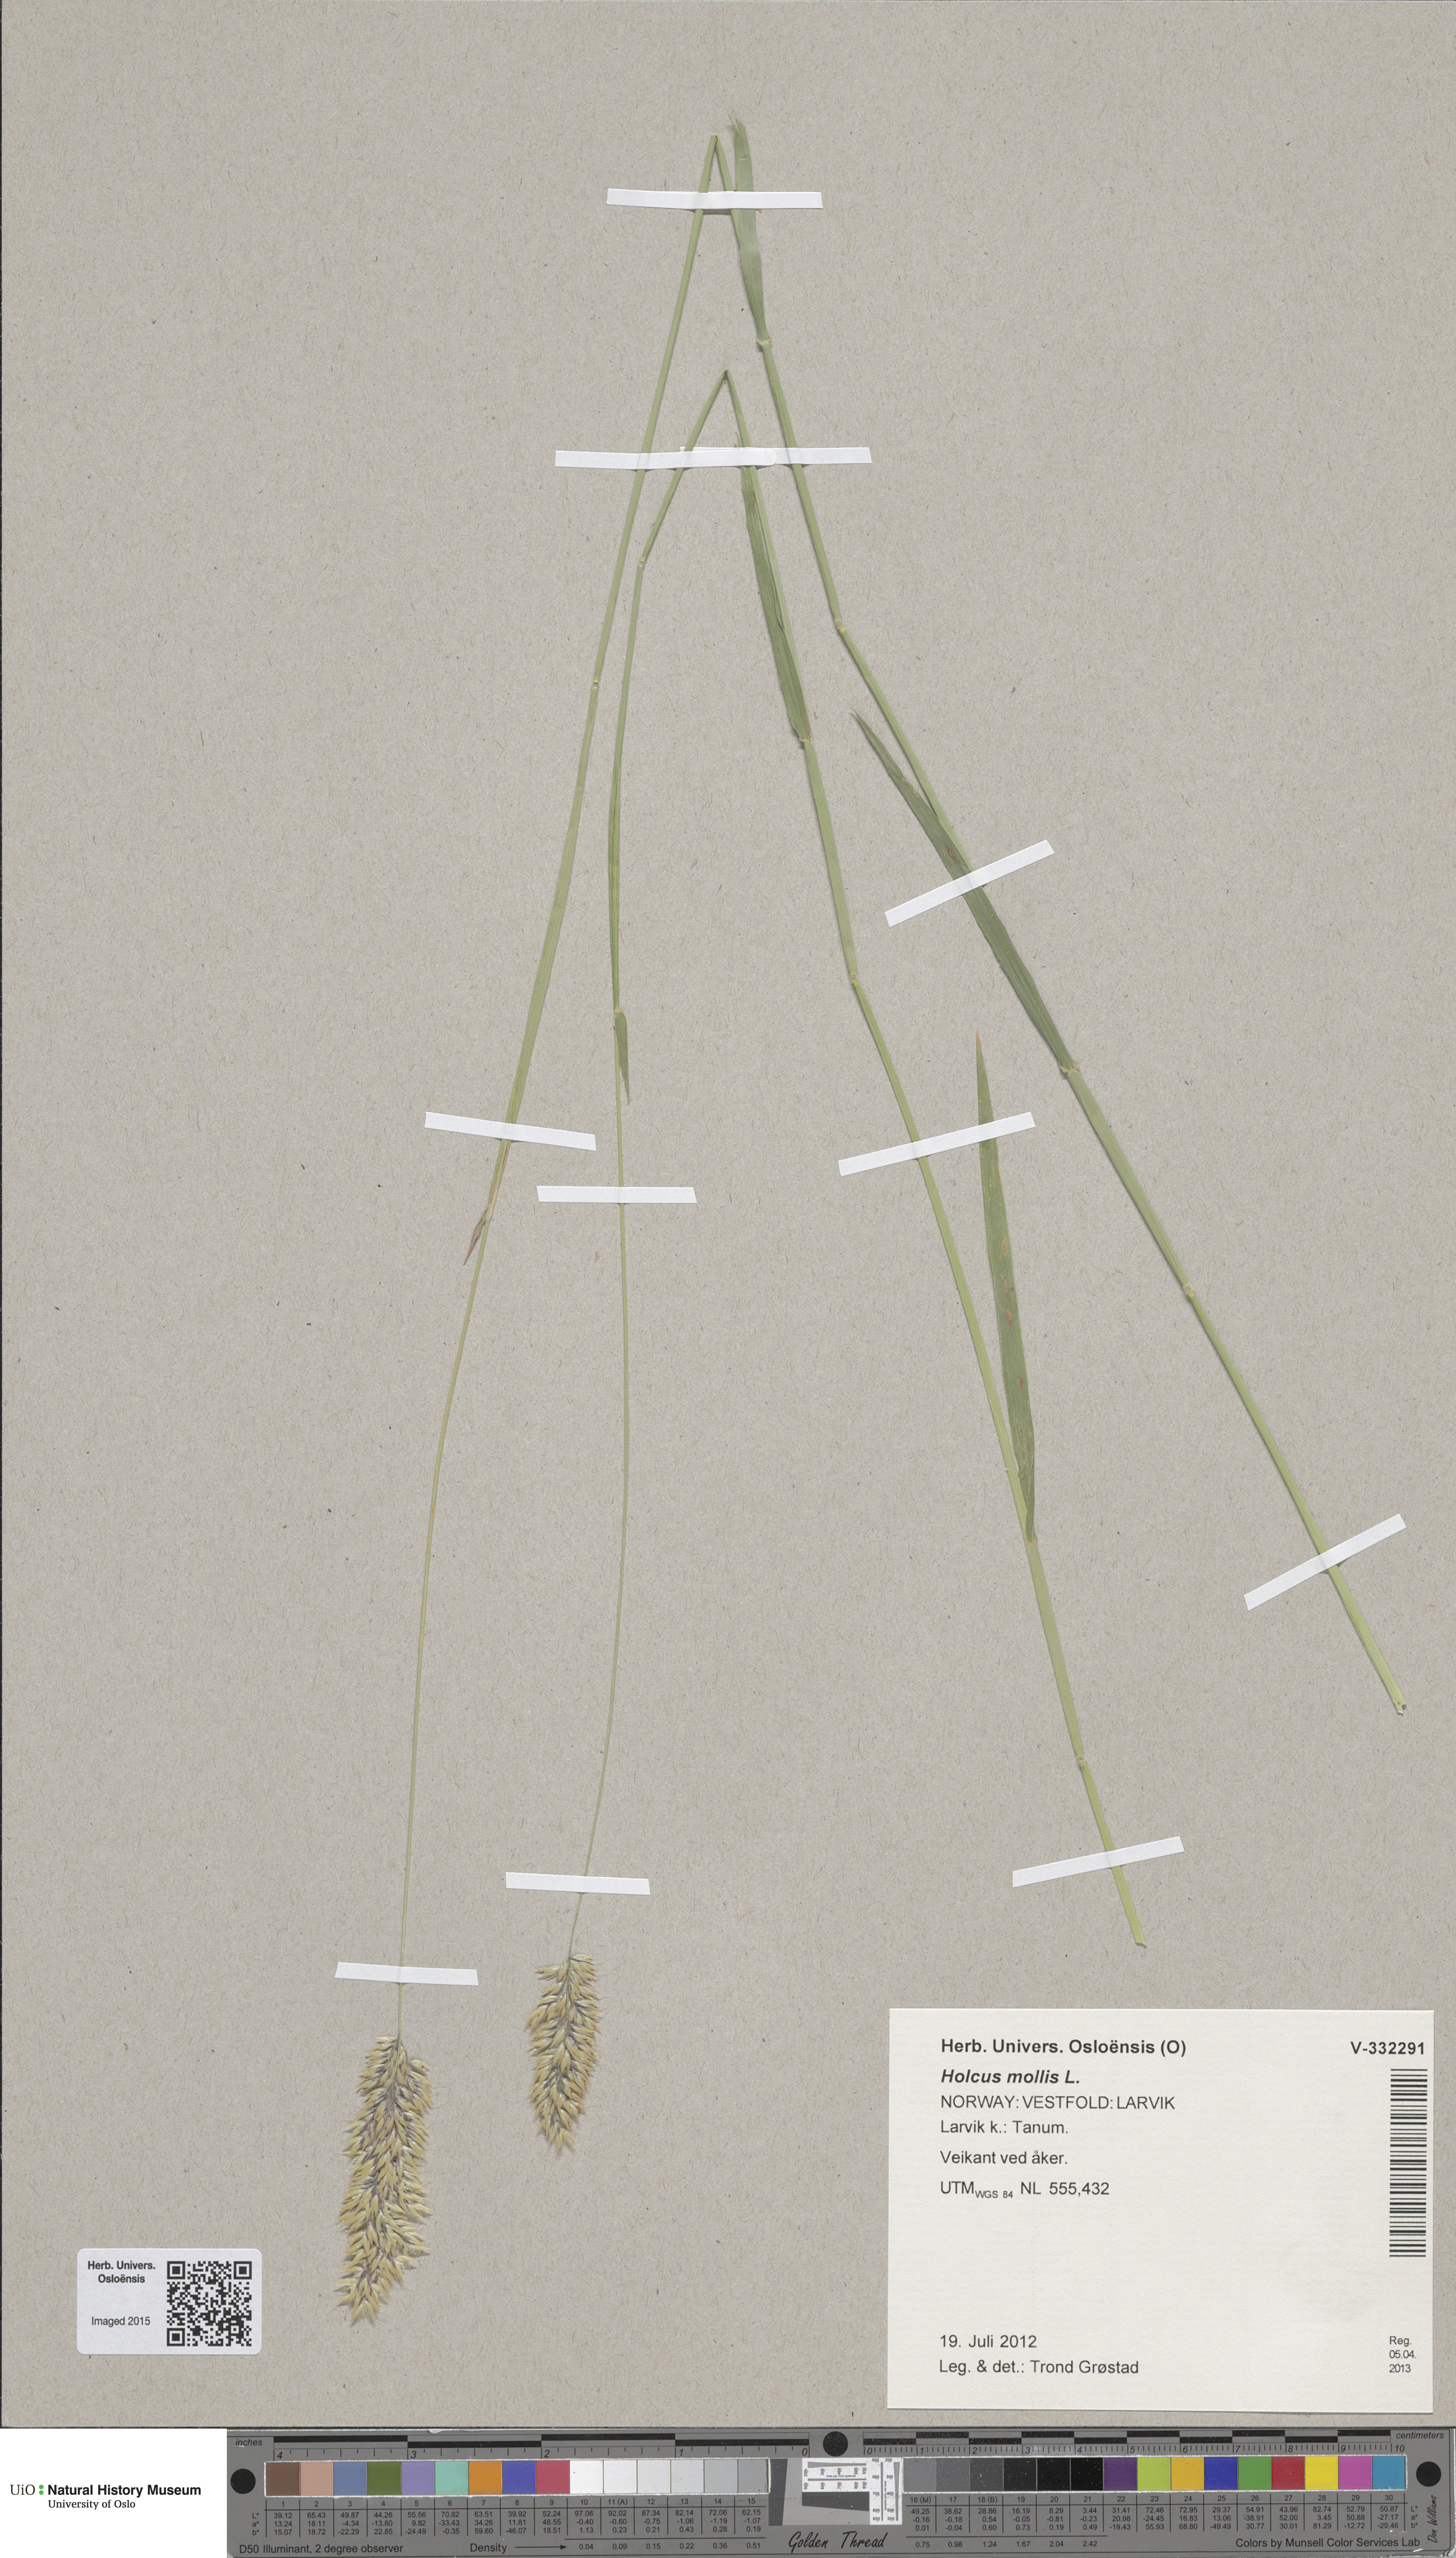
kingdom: Plantae
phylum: Tracheophyta
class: Liliopsida
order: Poales
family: Poaceae
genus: Holcus
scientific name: Holcus mollis
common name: Creeping velvetgrass
